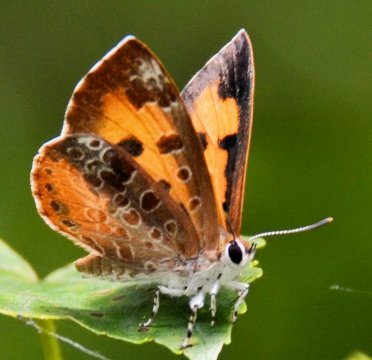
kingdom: Animalia
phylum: Arthropoda
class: Insecta
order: Lepidoptera
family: Lycaenidae
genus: Feniseca
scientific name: Feniseca tarquinius
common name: Harvester
